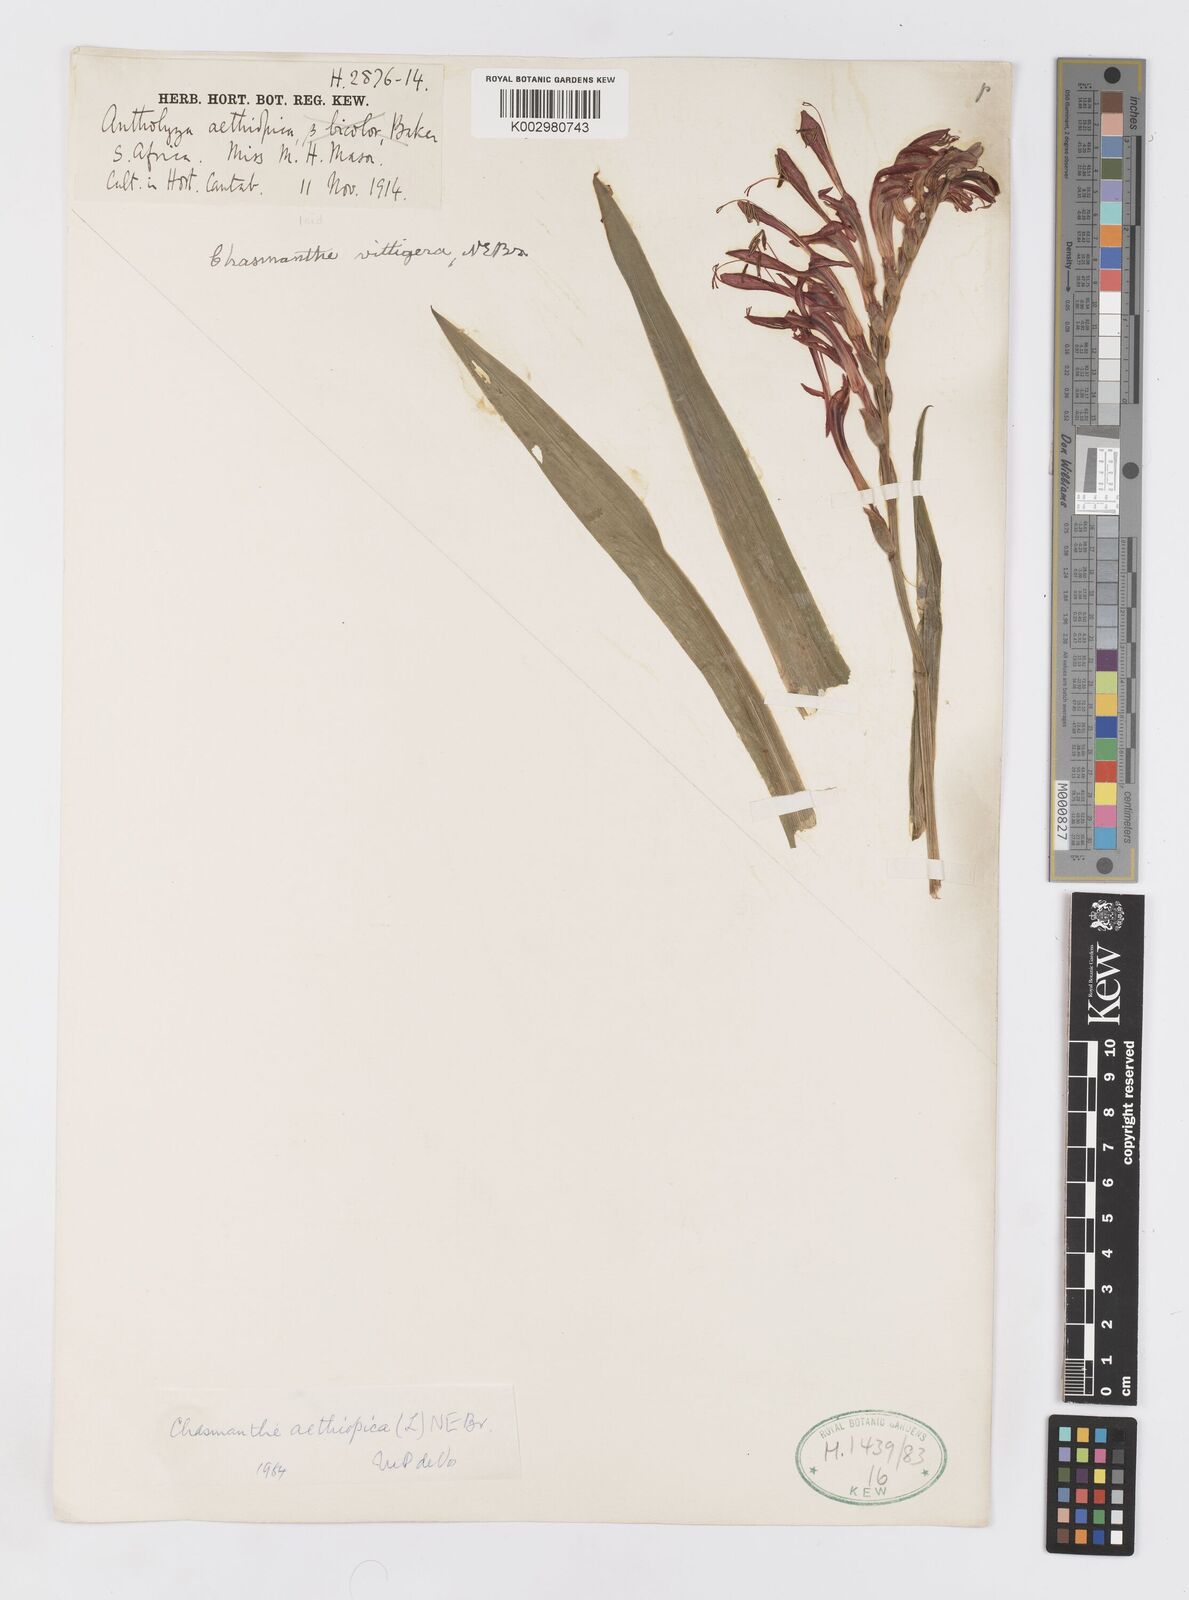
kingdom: Plantae
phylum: Tracheophyta
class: Liliopsida
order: Asparagales
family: Iridaceae
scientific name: Iridaceae
